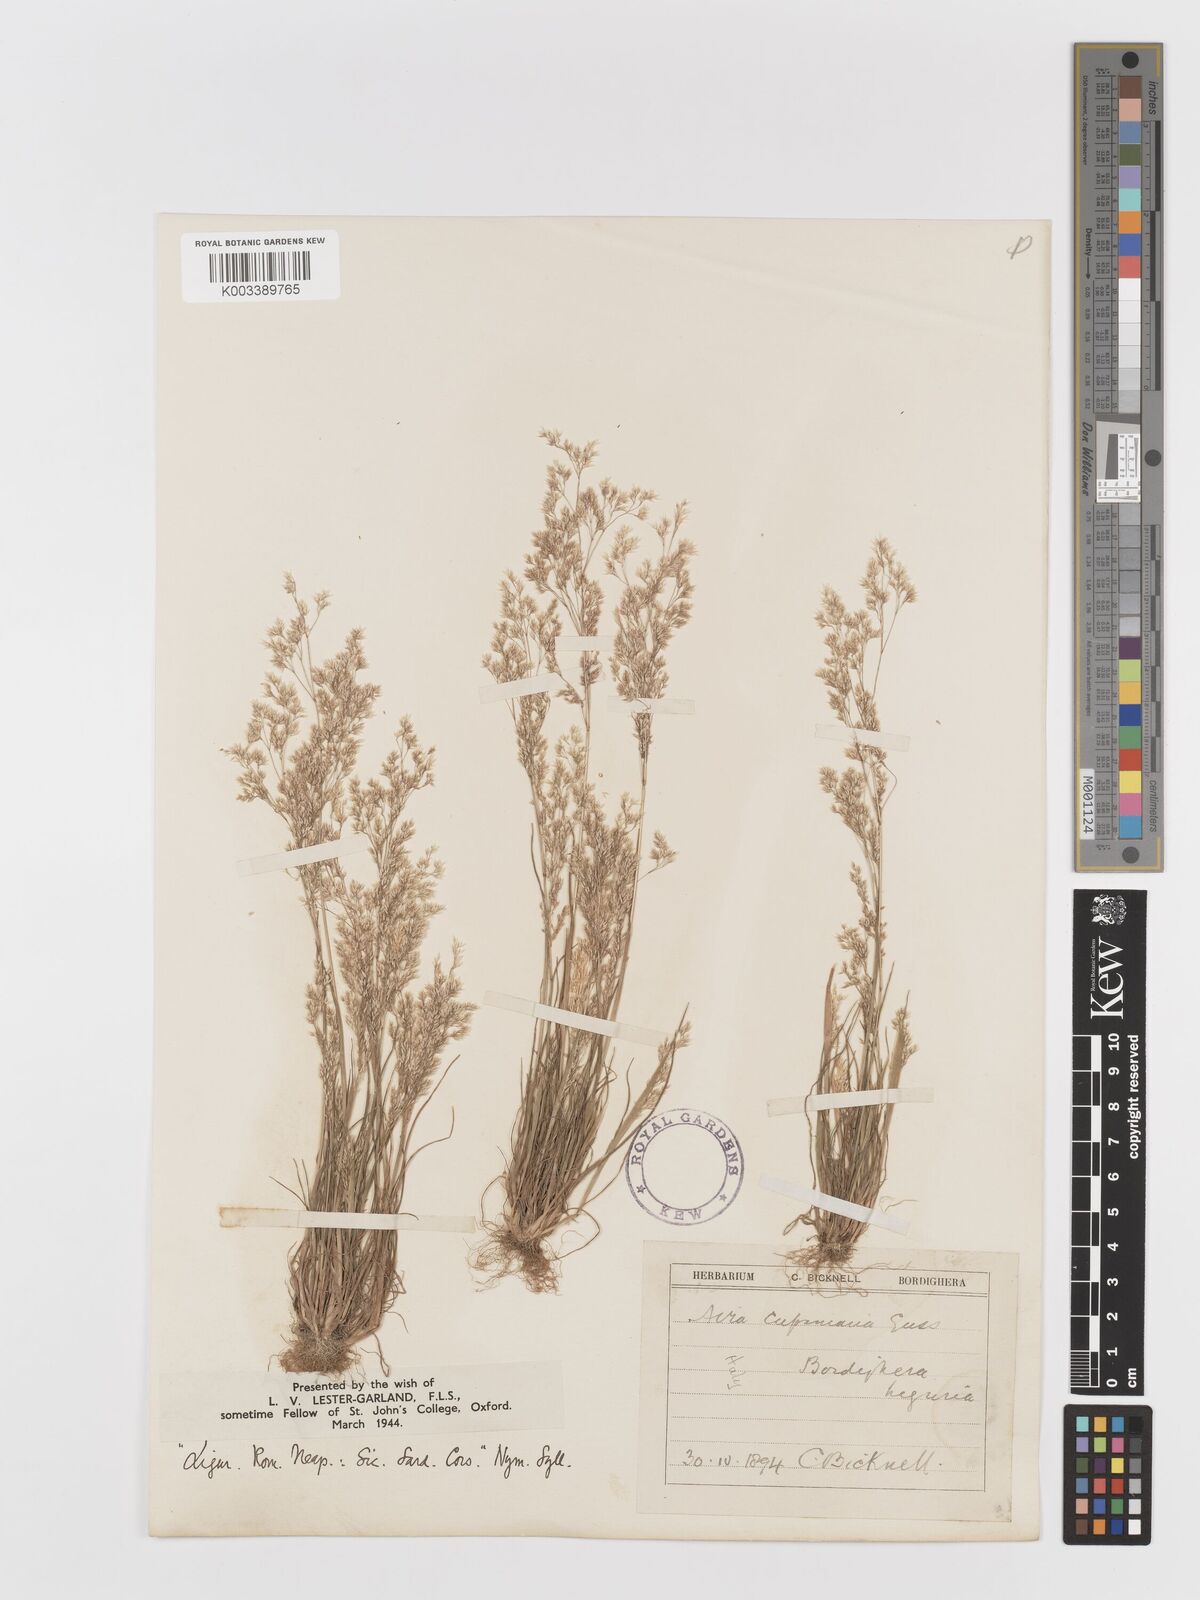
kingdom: Plantae
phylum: Tracheophyta
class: Liliopsida
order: Poales
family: Poaceae
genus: Aira
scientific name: Aira cupaniana
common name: Silver hairgrass
